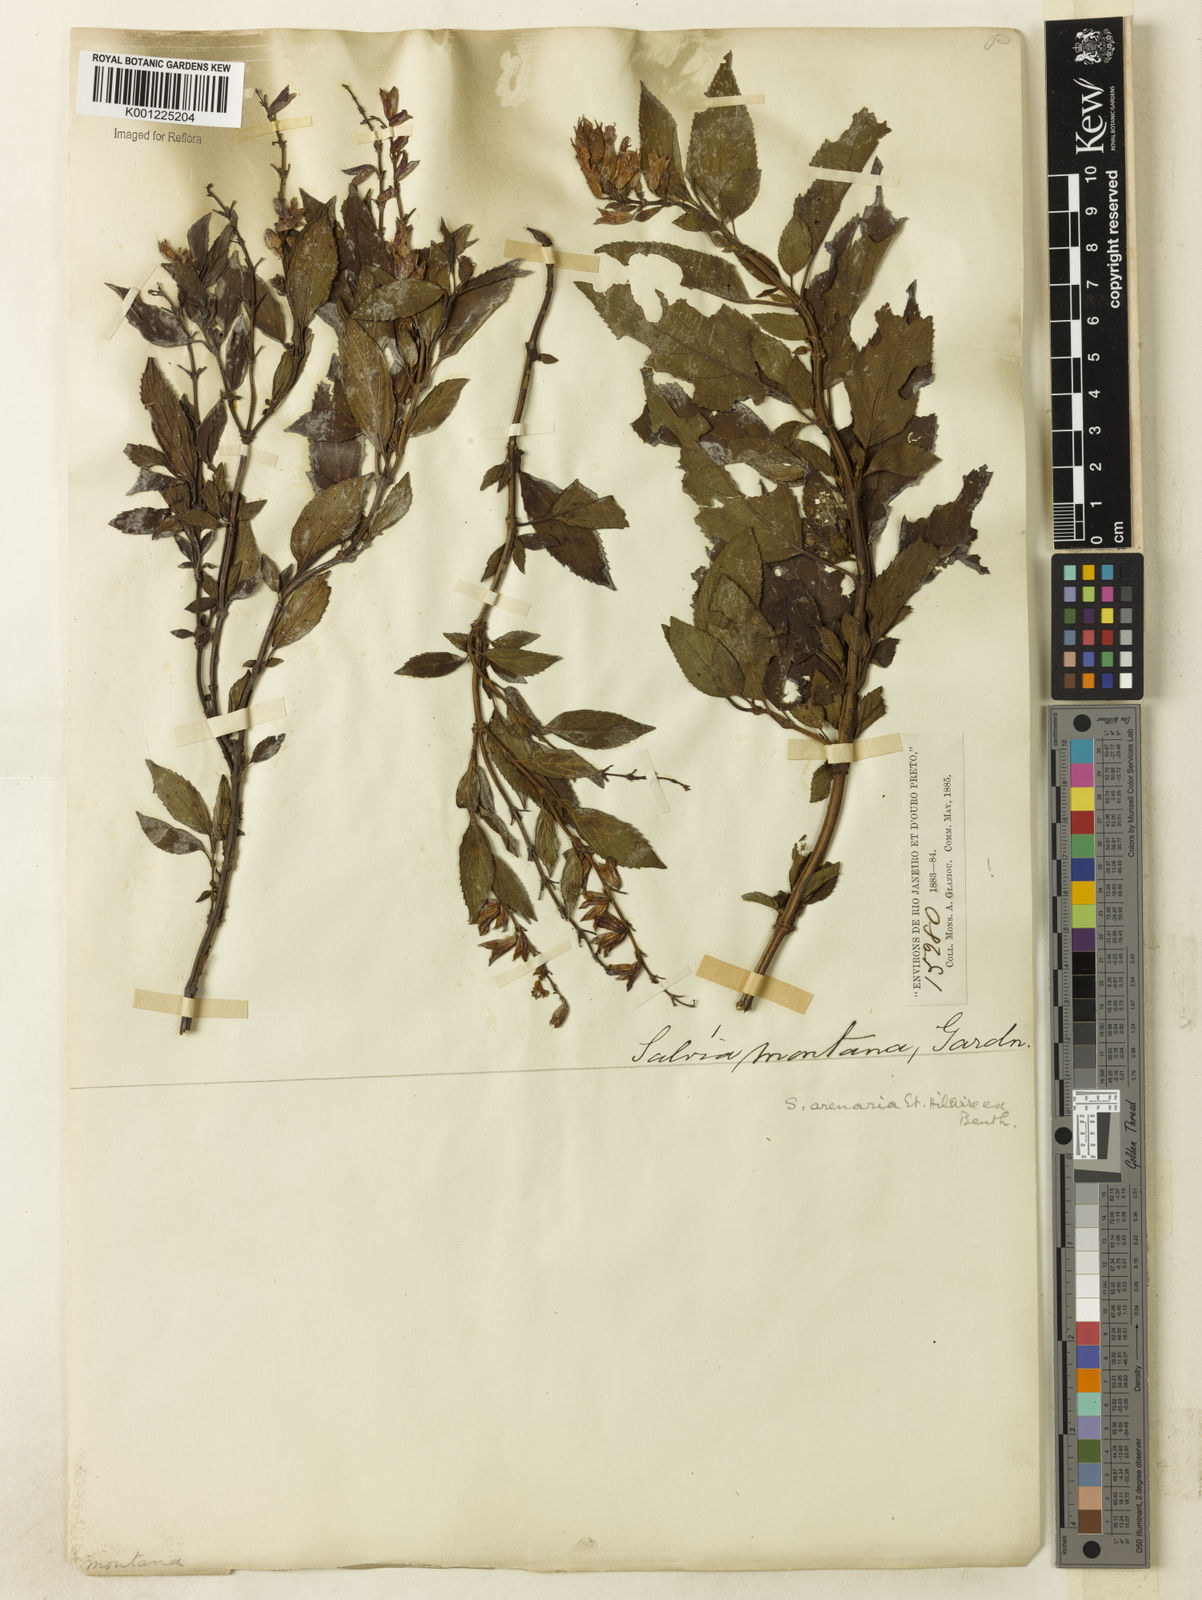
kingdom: Plantae
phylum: Tracheophyta
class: Magnoliopsida
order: Lamiales
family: Lamiaceae
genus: Salvia
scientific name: Salvia arenaria
